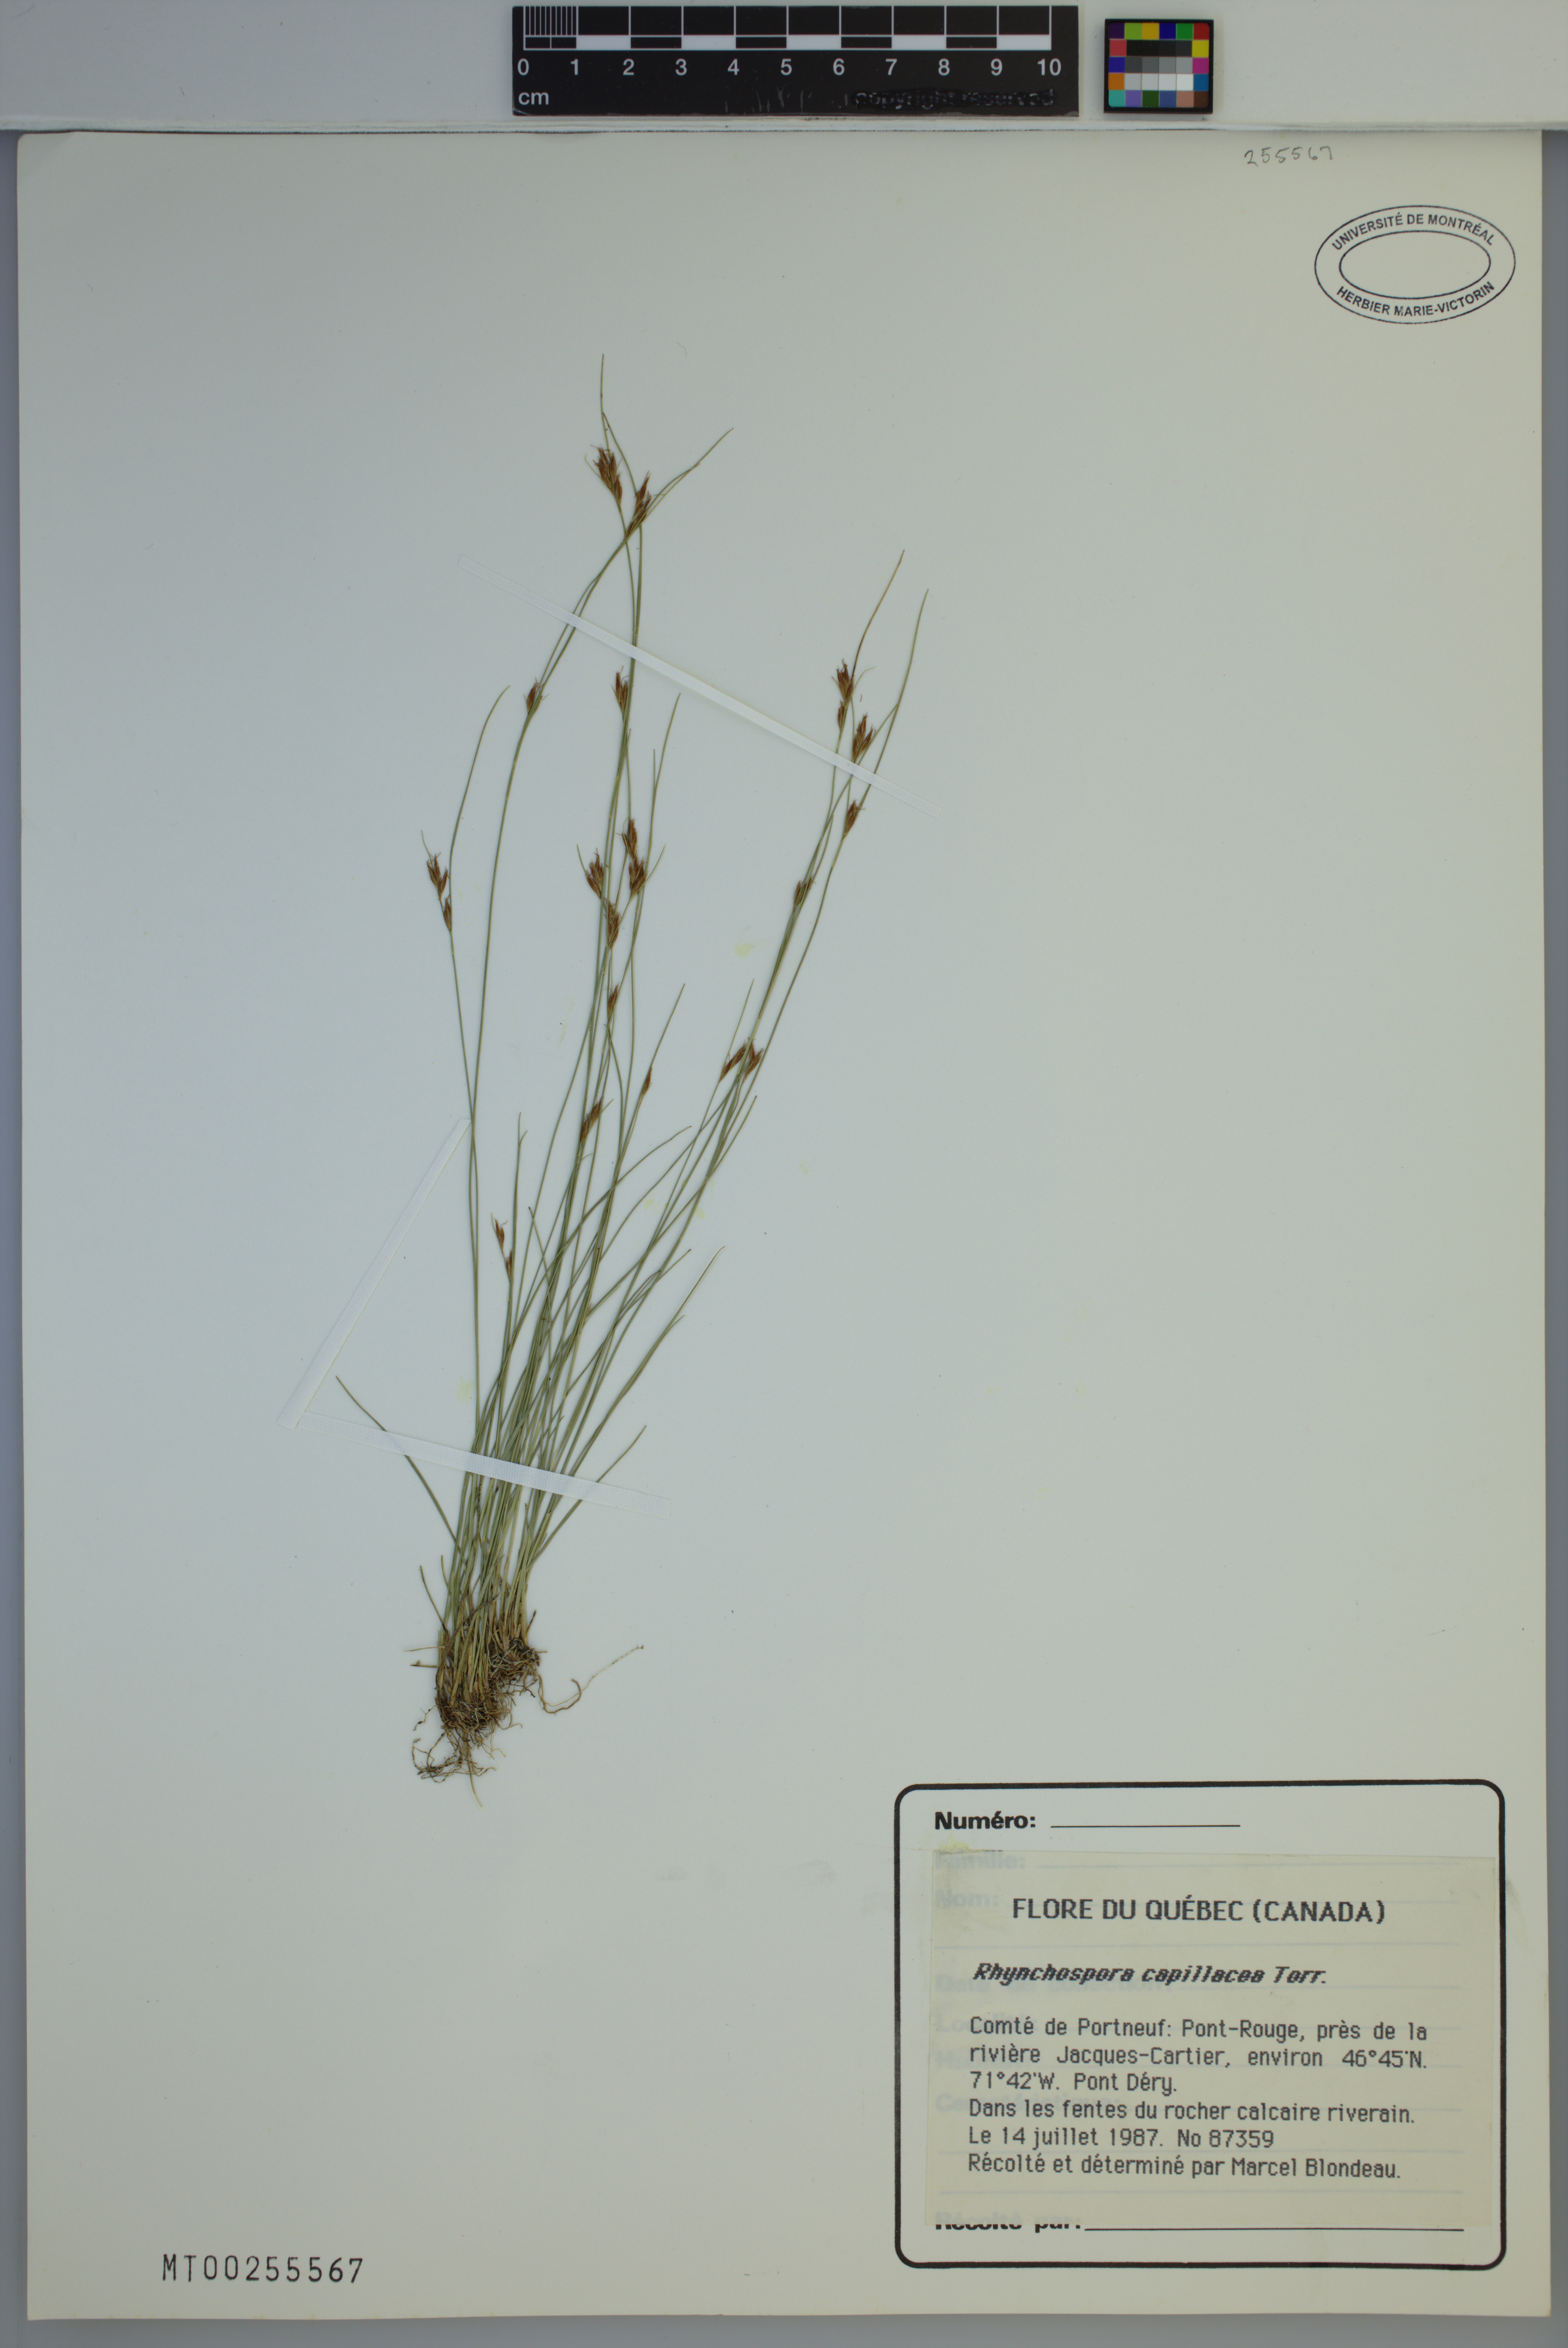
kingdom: Plantae
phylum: Tracheophyta
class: Liliopsida
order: Poales
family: Cyperaceae
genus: Rhynchospora
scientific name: Rhynchospora capillacea
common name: Capillary beakrush
